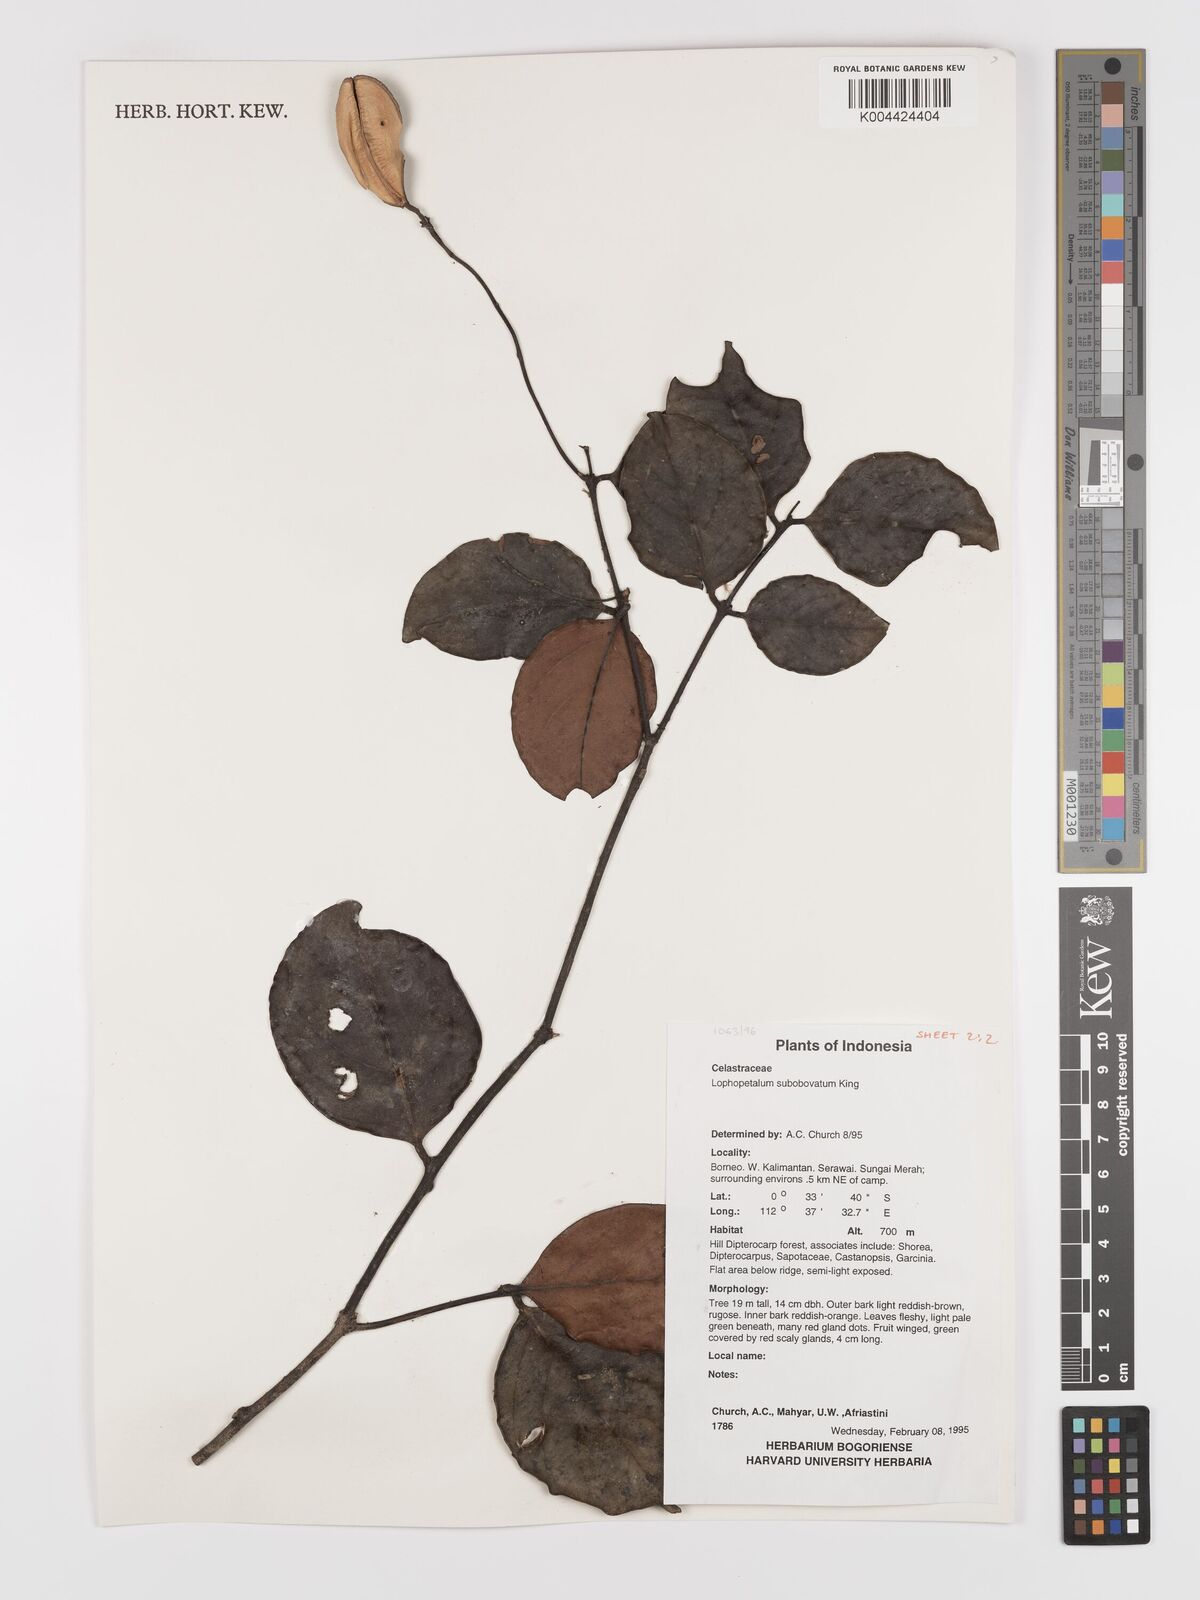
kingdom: Plantae
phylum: Tracheophyta
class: Magnoliopsida
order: Celastrales
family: Celastraceae
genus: Lophopetalum
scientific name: Lophopetalum
